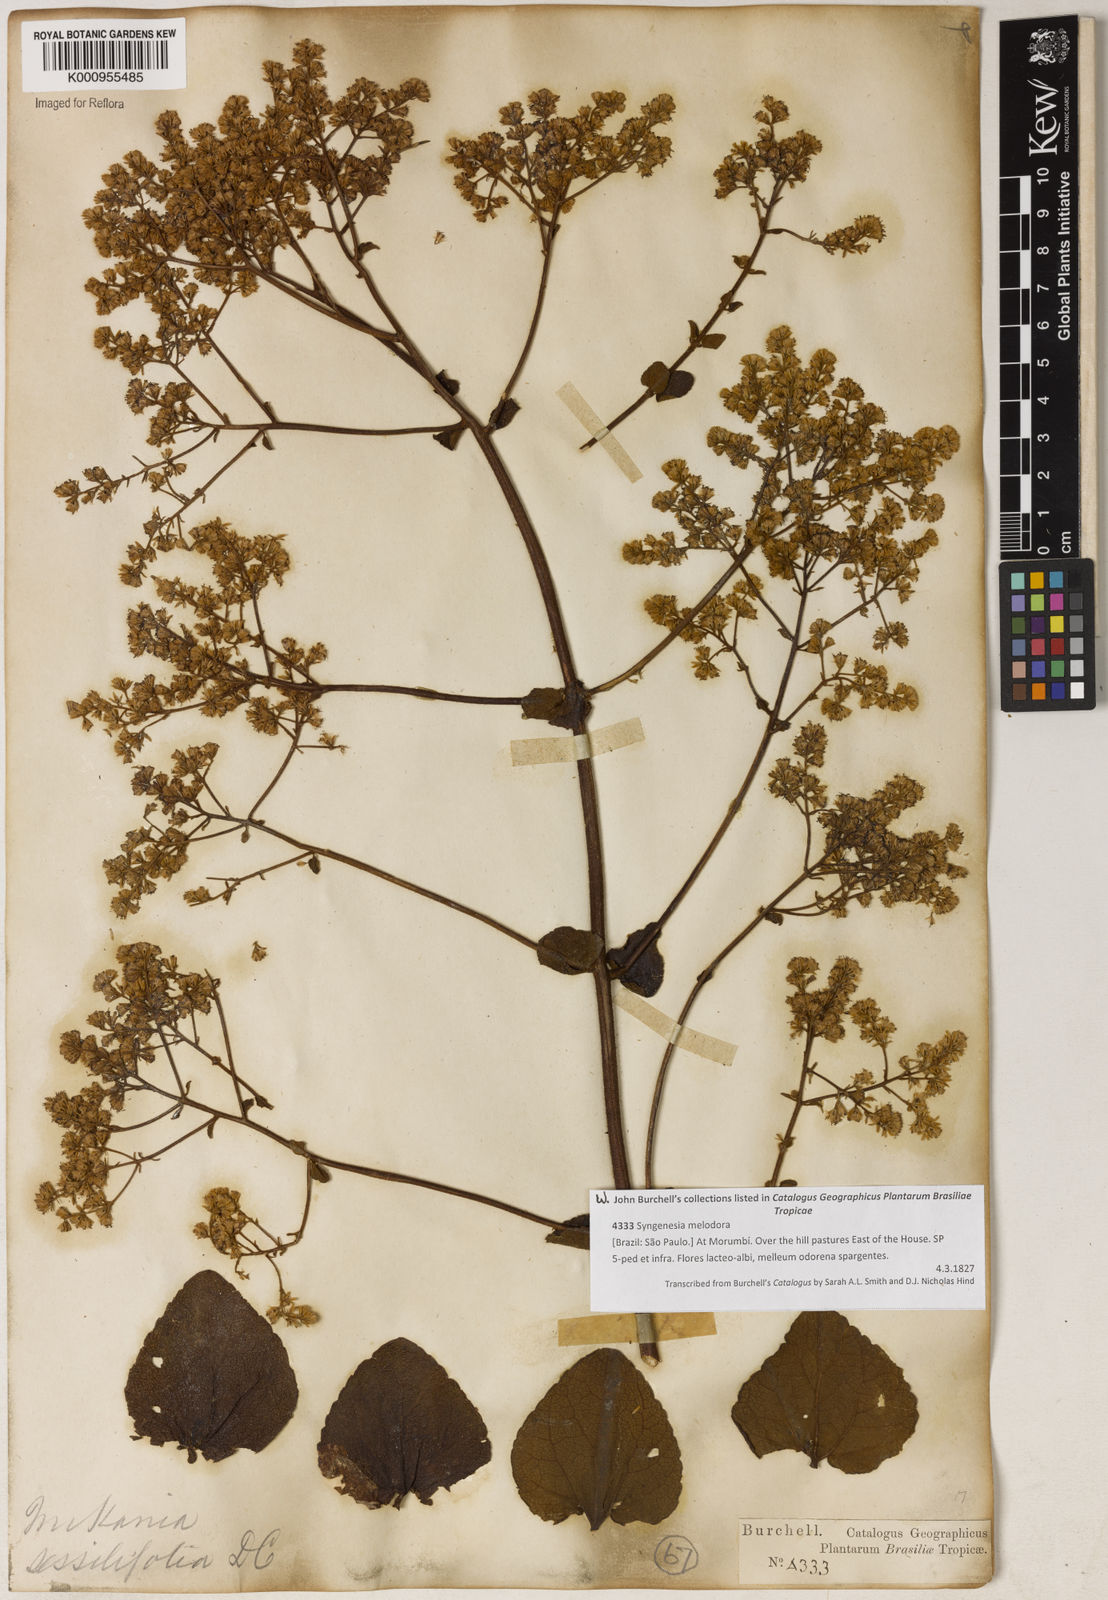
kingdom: Plantae
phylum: Tracheophyta
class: Magnoliopsida
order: Asterales
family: Asteraceae
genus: Mikania
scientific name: Mikania sessilifolia
